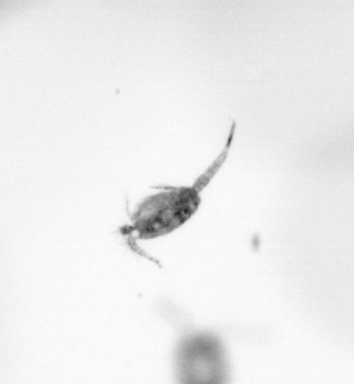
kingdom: Animalia
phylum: Arthropoda
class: Copepoda
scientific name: Copepoda
